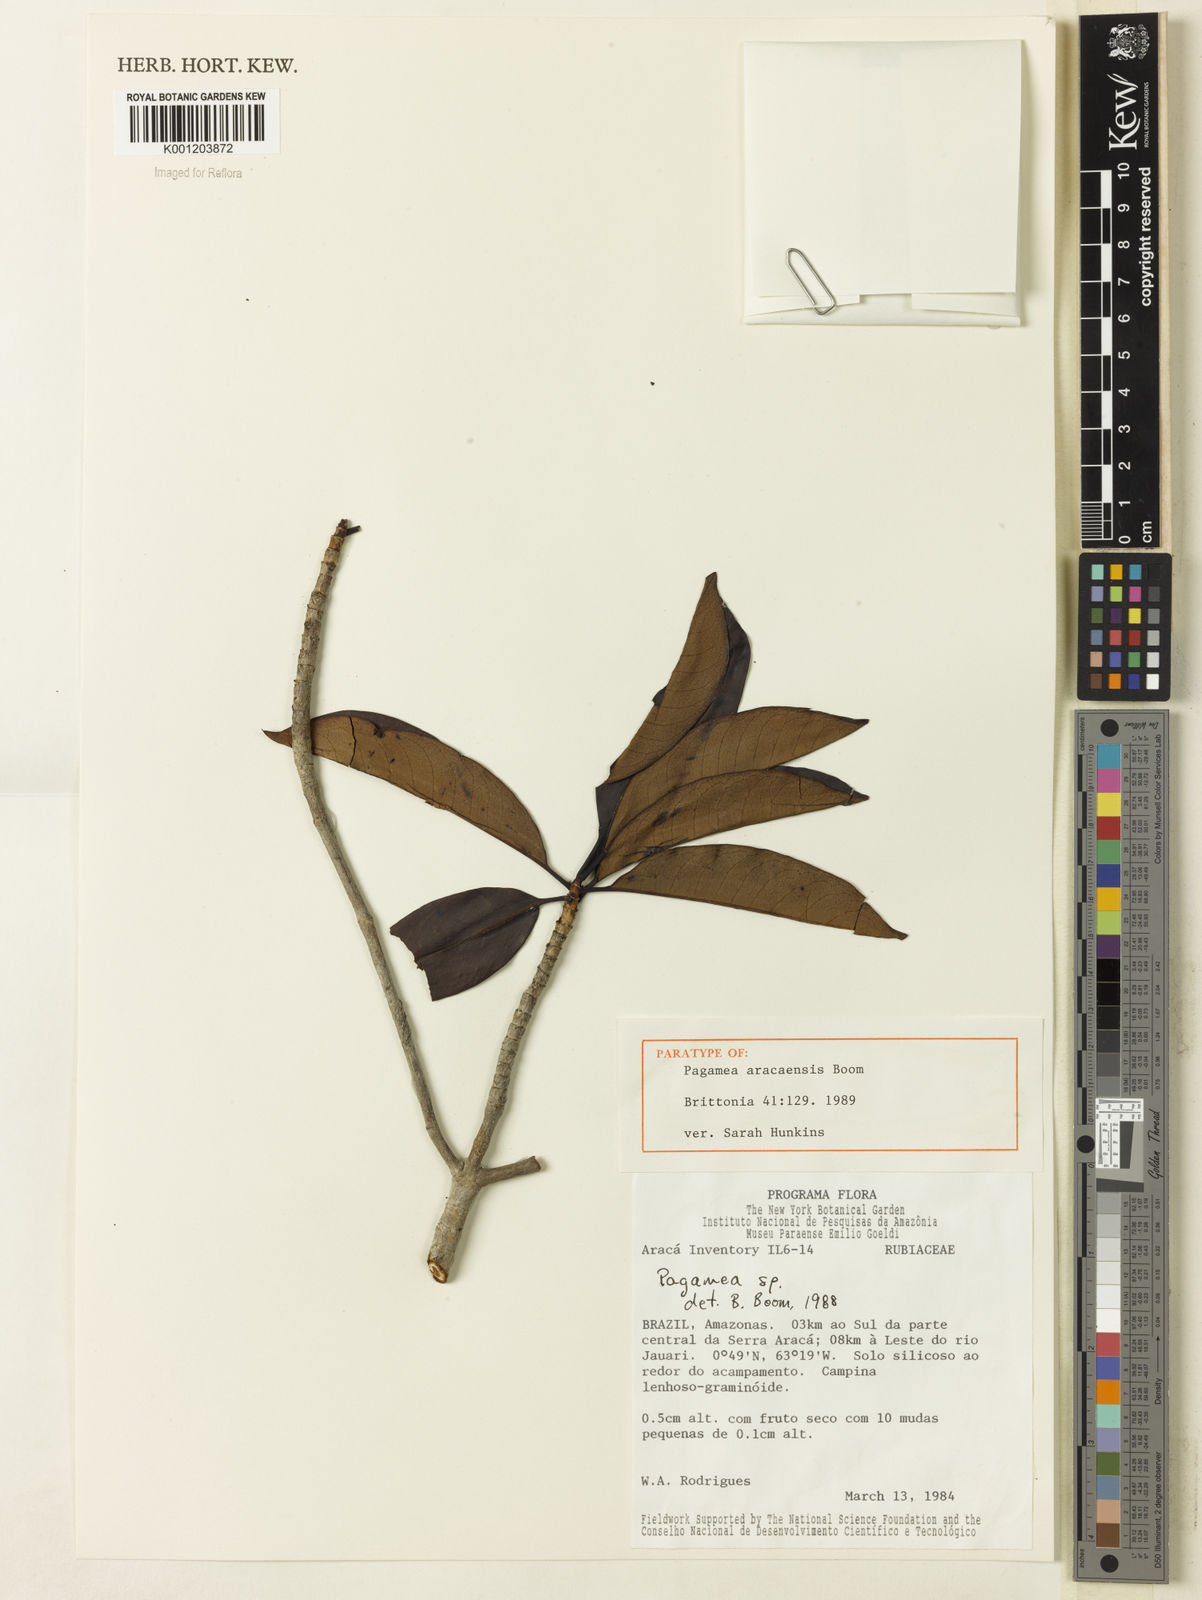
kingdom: Plantae
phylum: Tracheophyta
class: Magnoliopsida
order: Gentianales
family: Rubiaceae
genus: Pagamea
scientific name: Pagamea aracaensis
